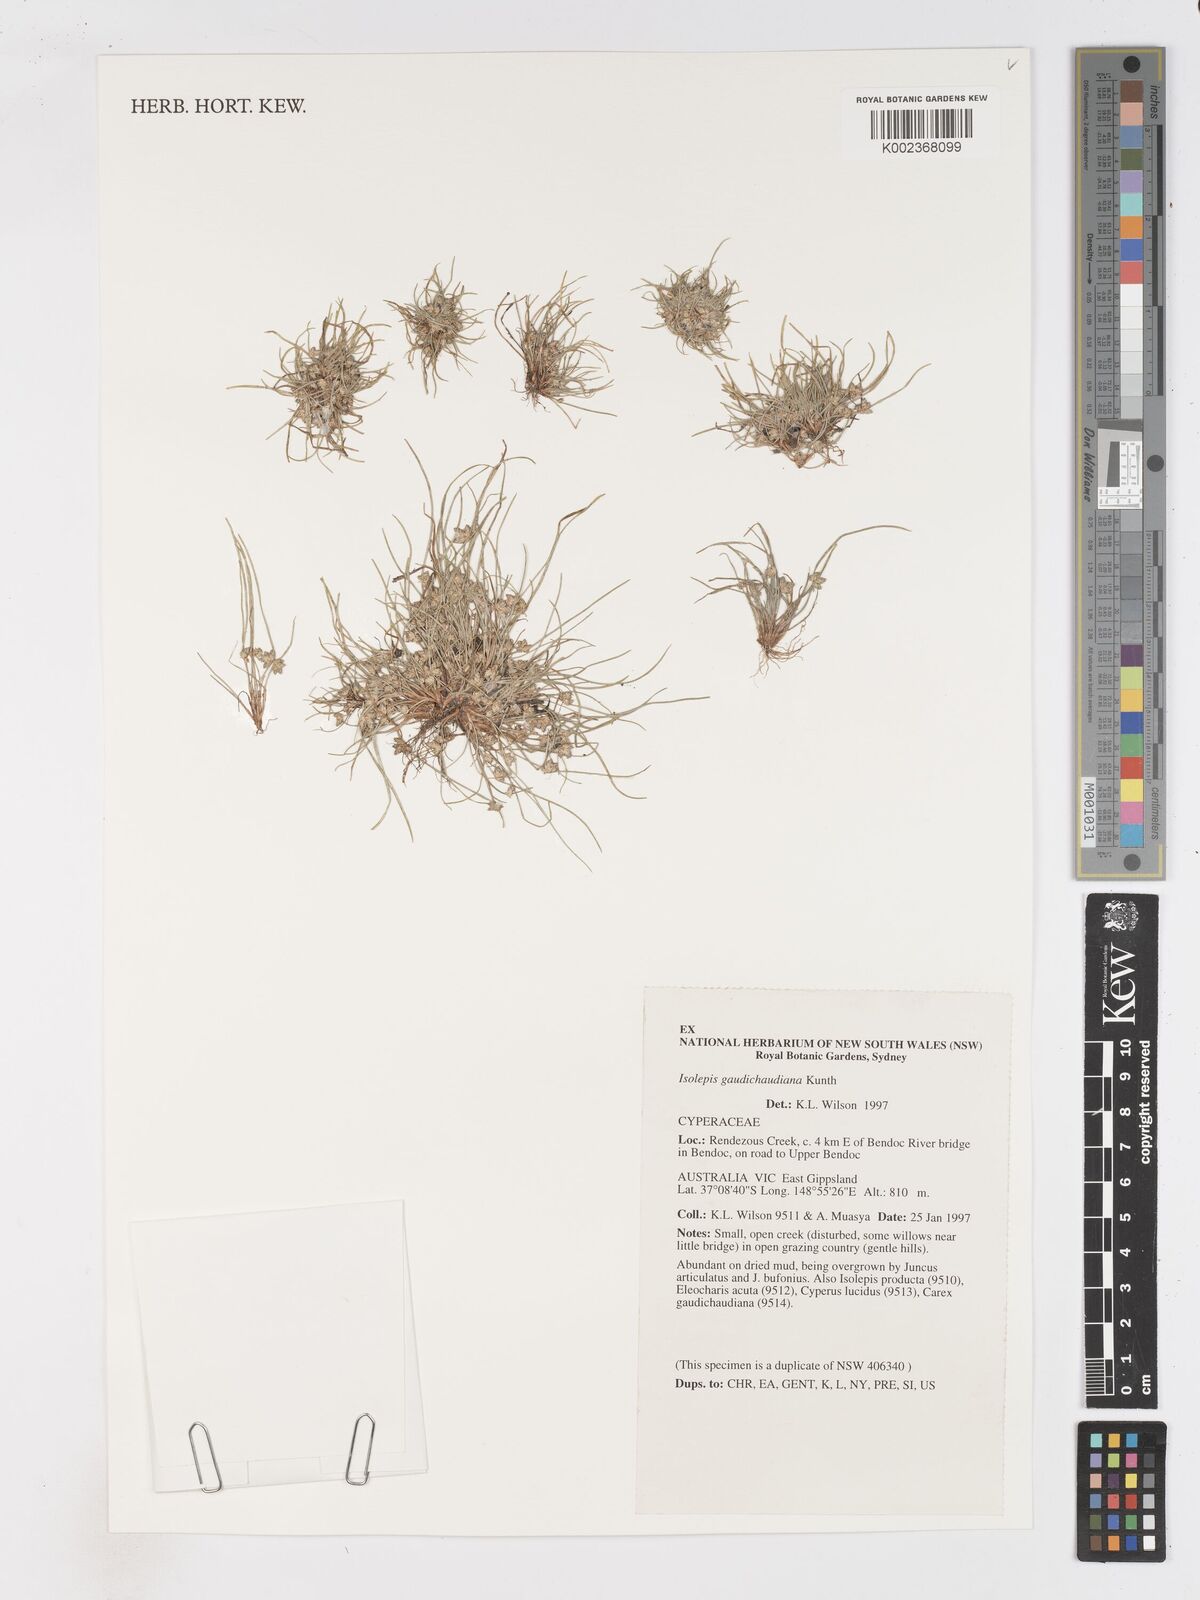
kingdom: Plantae
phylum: Tracheophyta
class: Liliopsida
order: Poales
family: Cyperaceae
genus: Isolepis
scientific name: Isolepis gaudichaudiana
